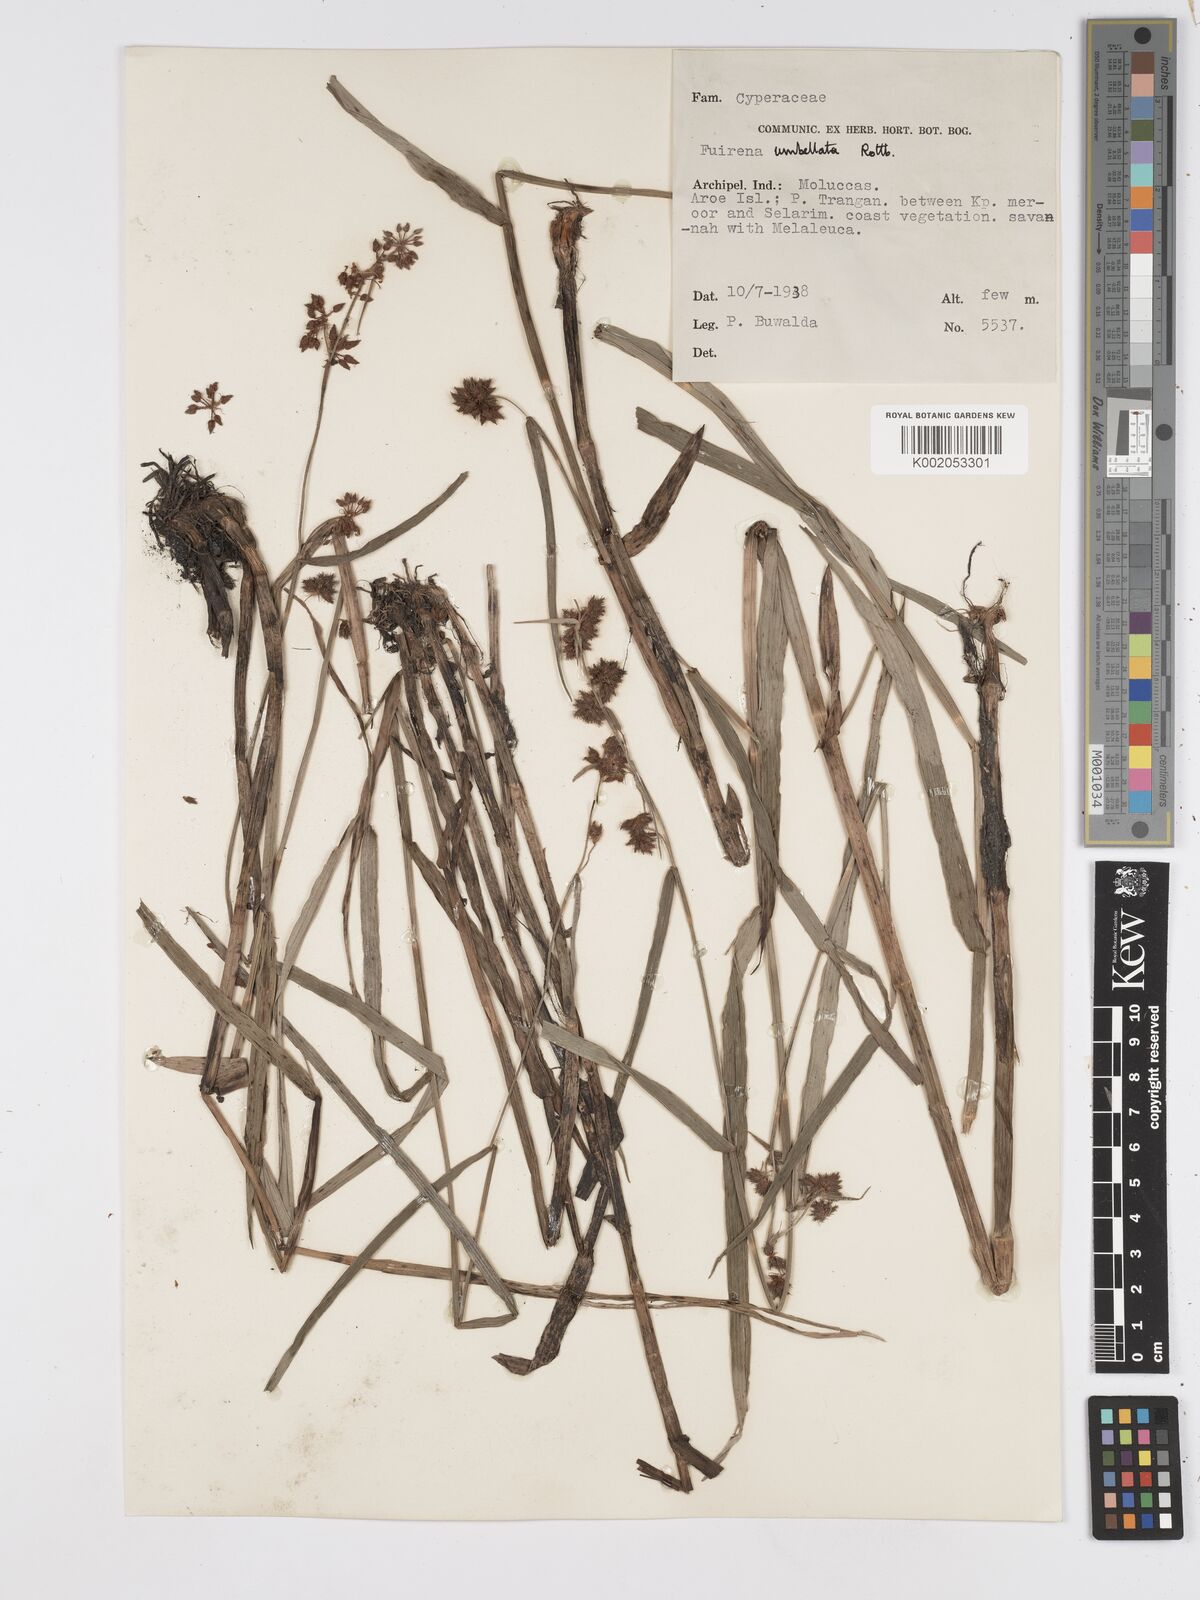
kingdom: Plantae
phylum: Tracheophyta
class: Liliopsida
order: Poales
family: Cyperaceae
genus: Fuirena
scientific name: Fuirena umbellata
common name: Yefen
